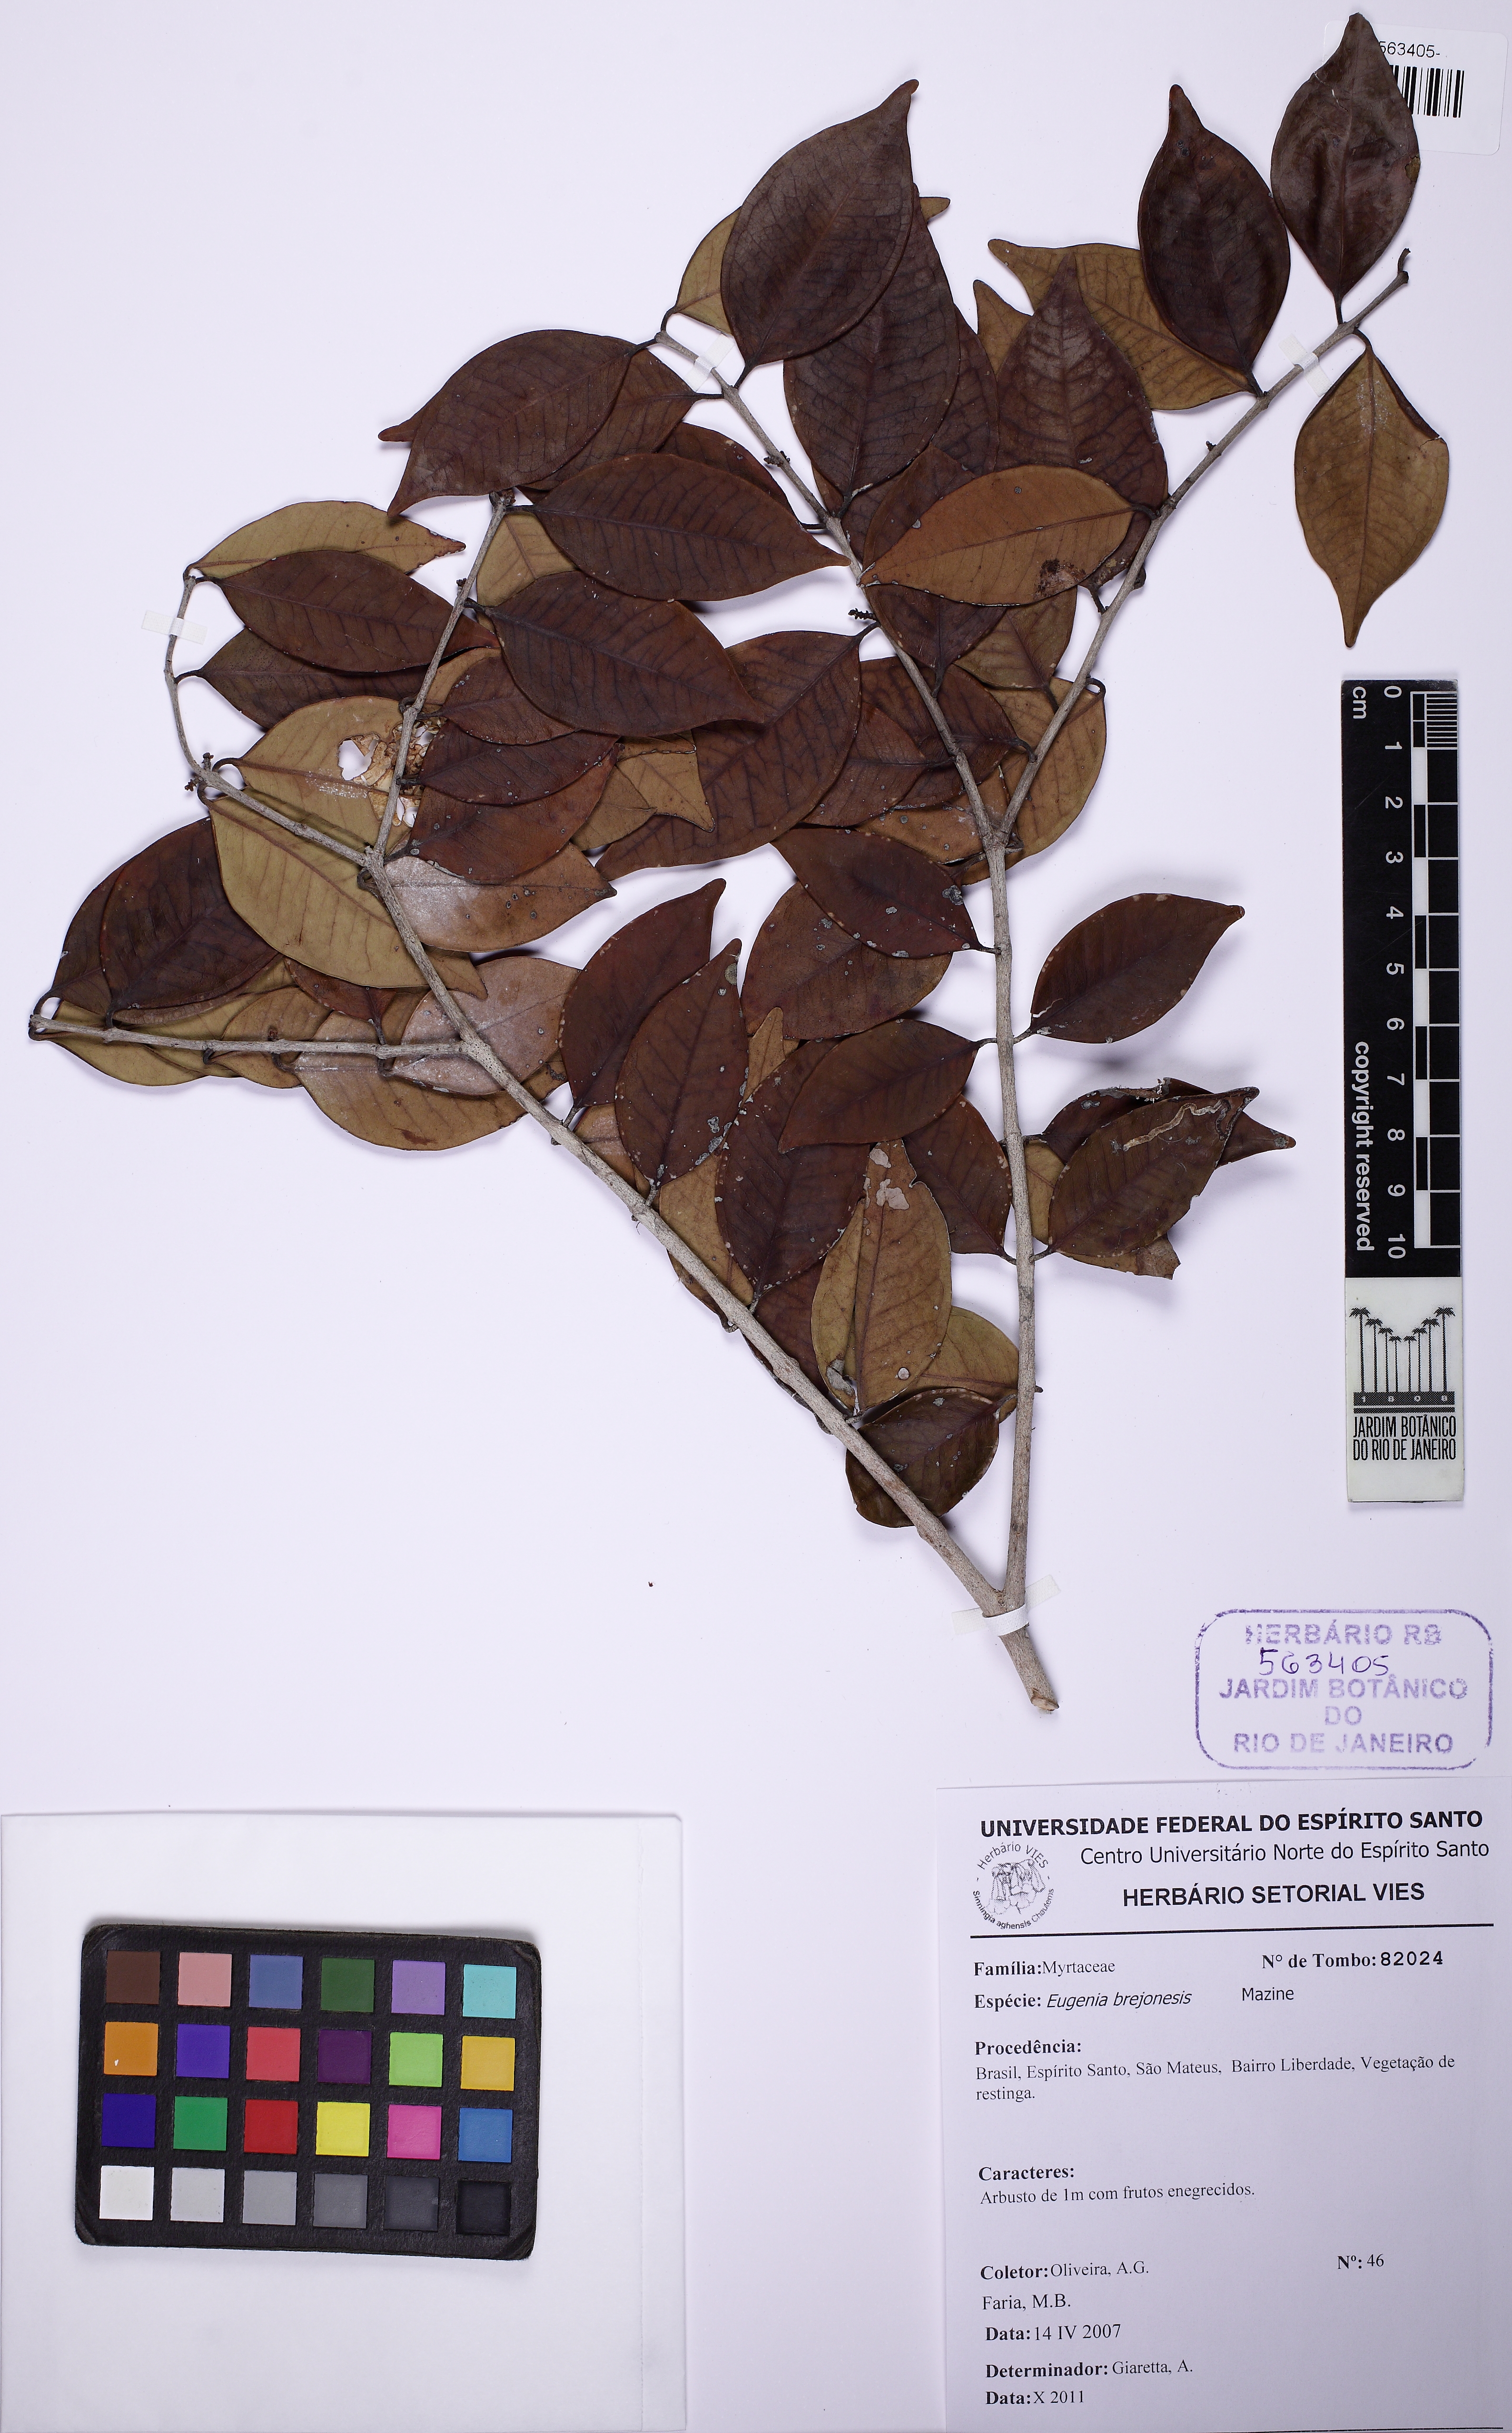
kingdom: Plantae
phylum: Tracheophyta
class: Magnoliopsida
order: Myrtales
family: Myrtaceae
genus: Eugenia
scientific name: Eugenia brejoensis
